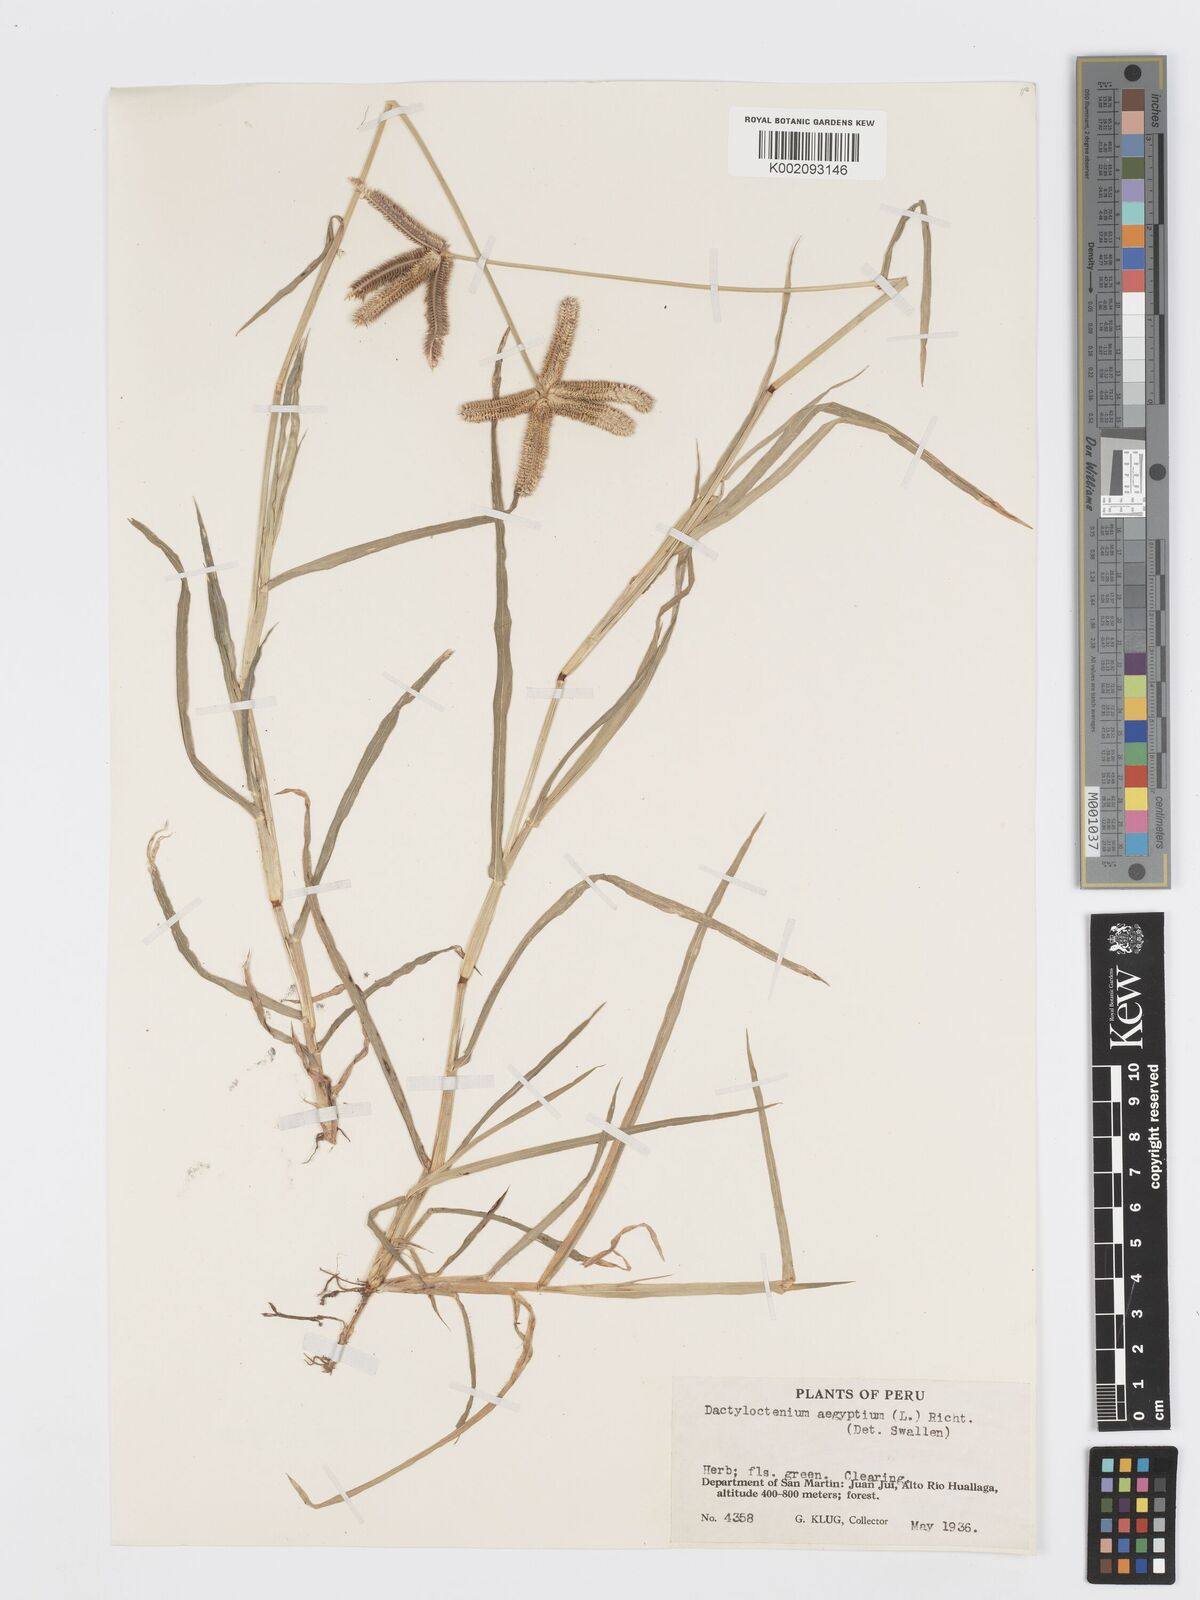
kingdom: Plantae
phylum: Tracheophyta
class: Liliopsida
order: Poales
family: Poaceae
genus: Dactyloctenium
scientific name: Dactyloctenium aegyptium
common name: Egyptian grass
